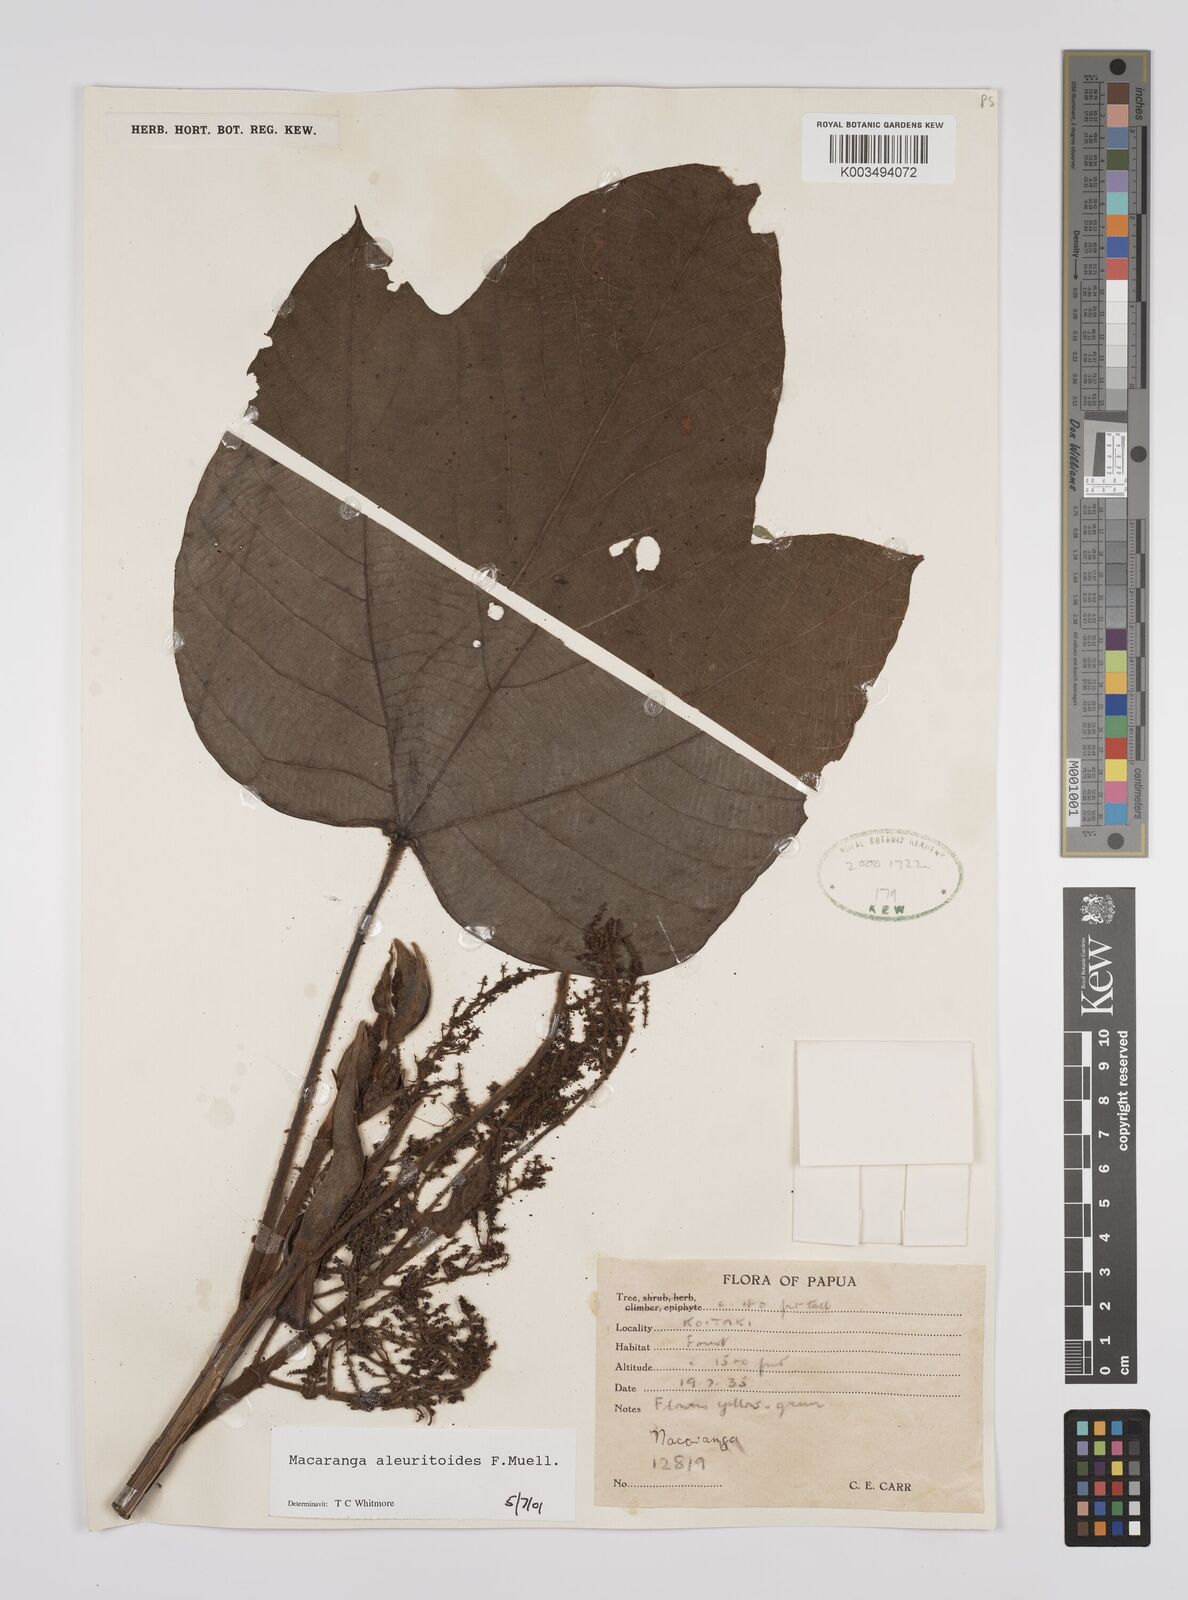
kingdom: Plantae
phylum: Tracheophyta
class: Magnoliopsida
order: Malpighiales
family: Euphorbiaceae
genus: Macaranga
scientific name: Macaranga aleuritoides
